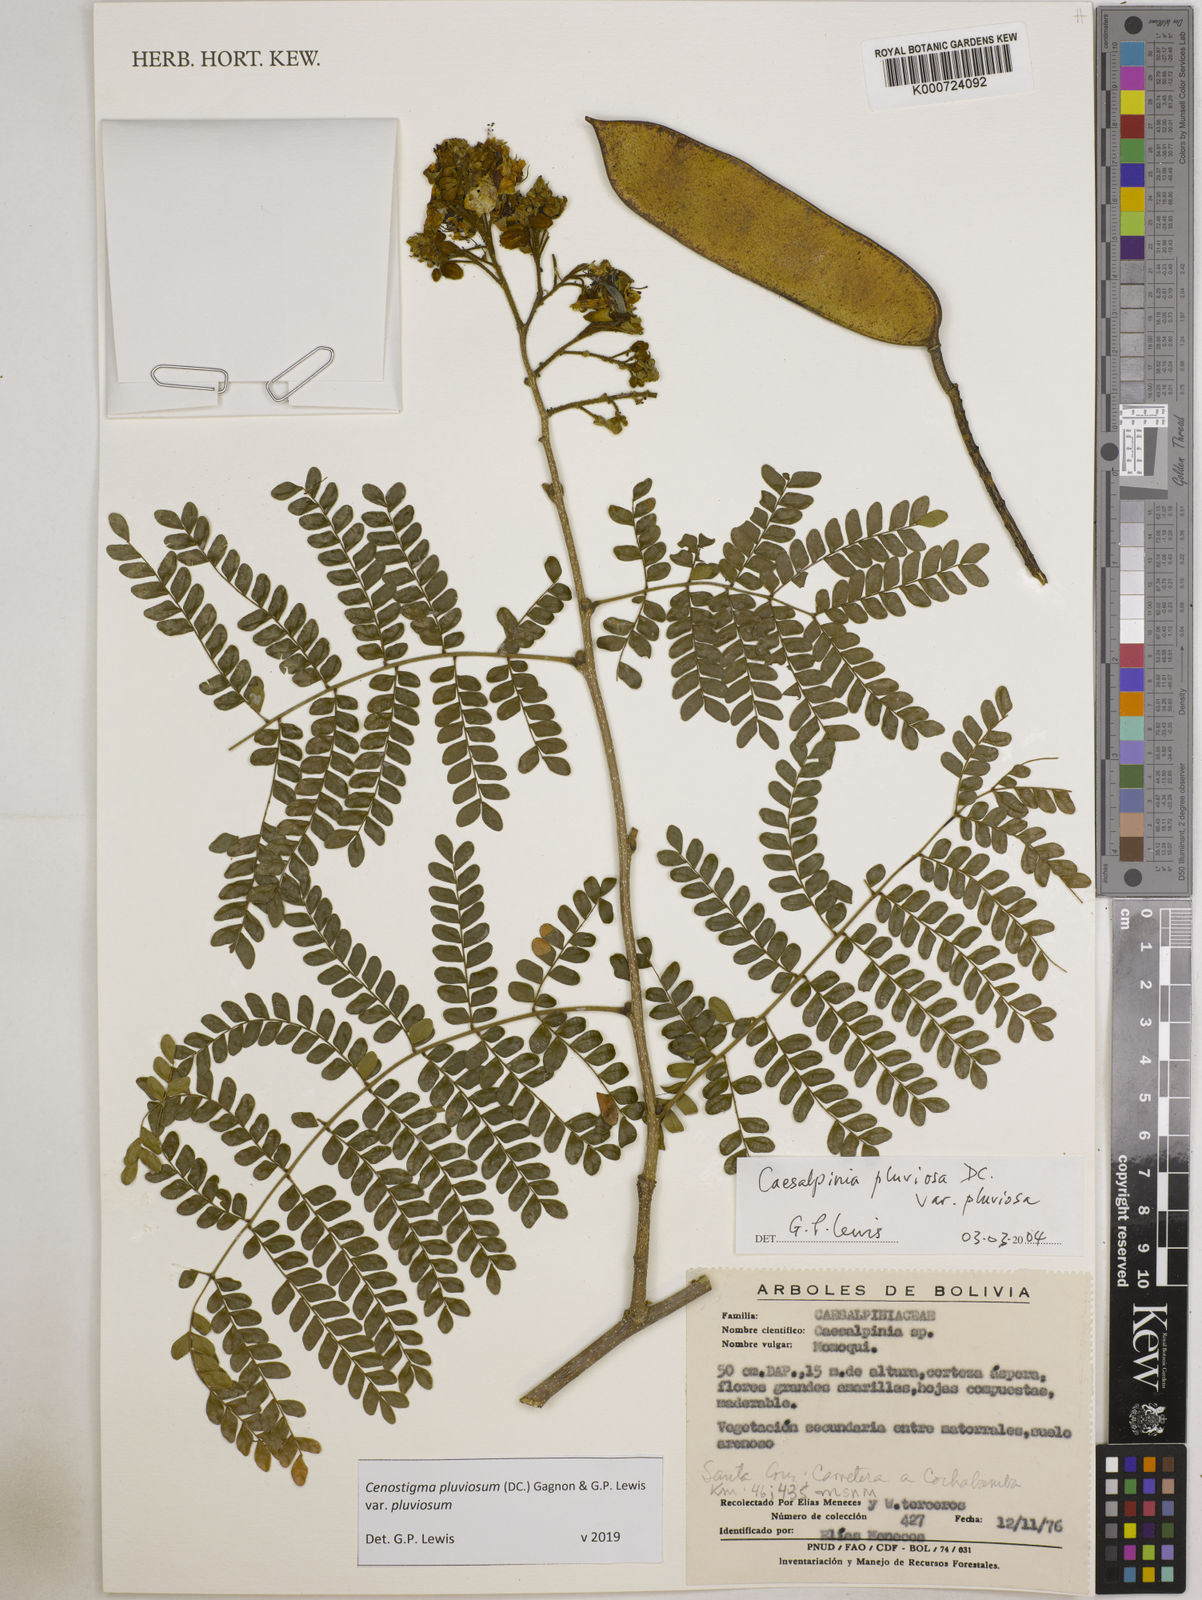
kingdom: Plantae
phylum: Tracheophyta
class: Magnoliopsida
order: Fabales
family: Fabaceae
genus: Cenostigma
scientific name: Cenostigma pluviosum
